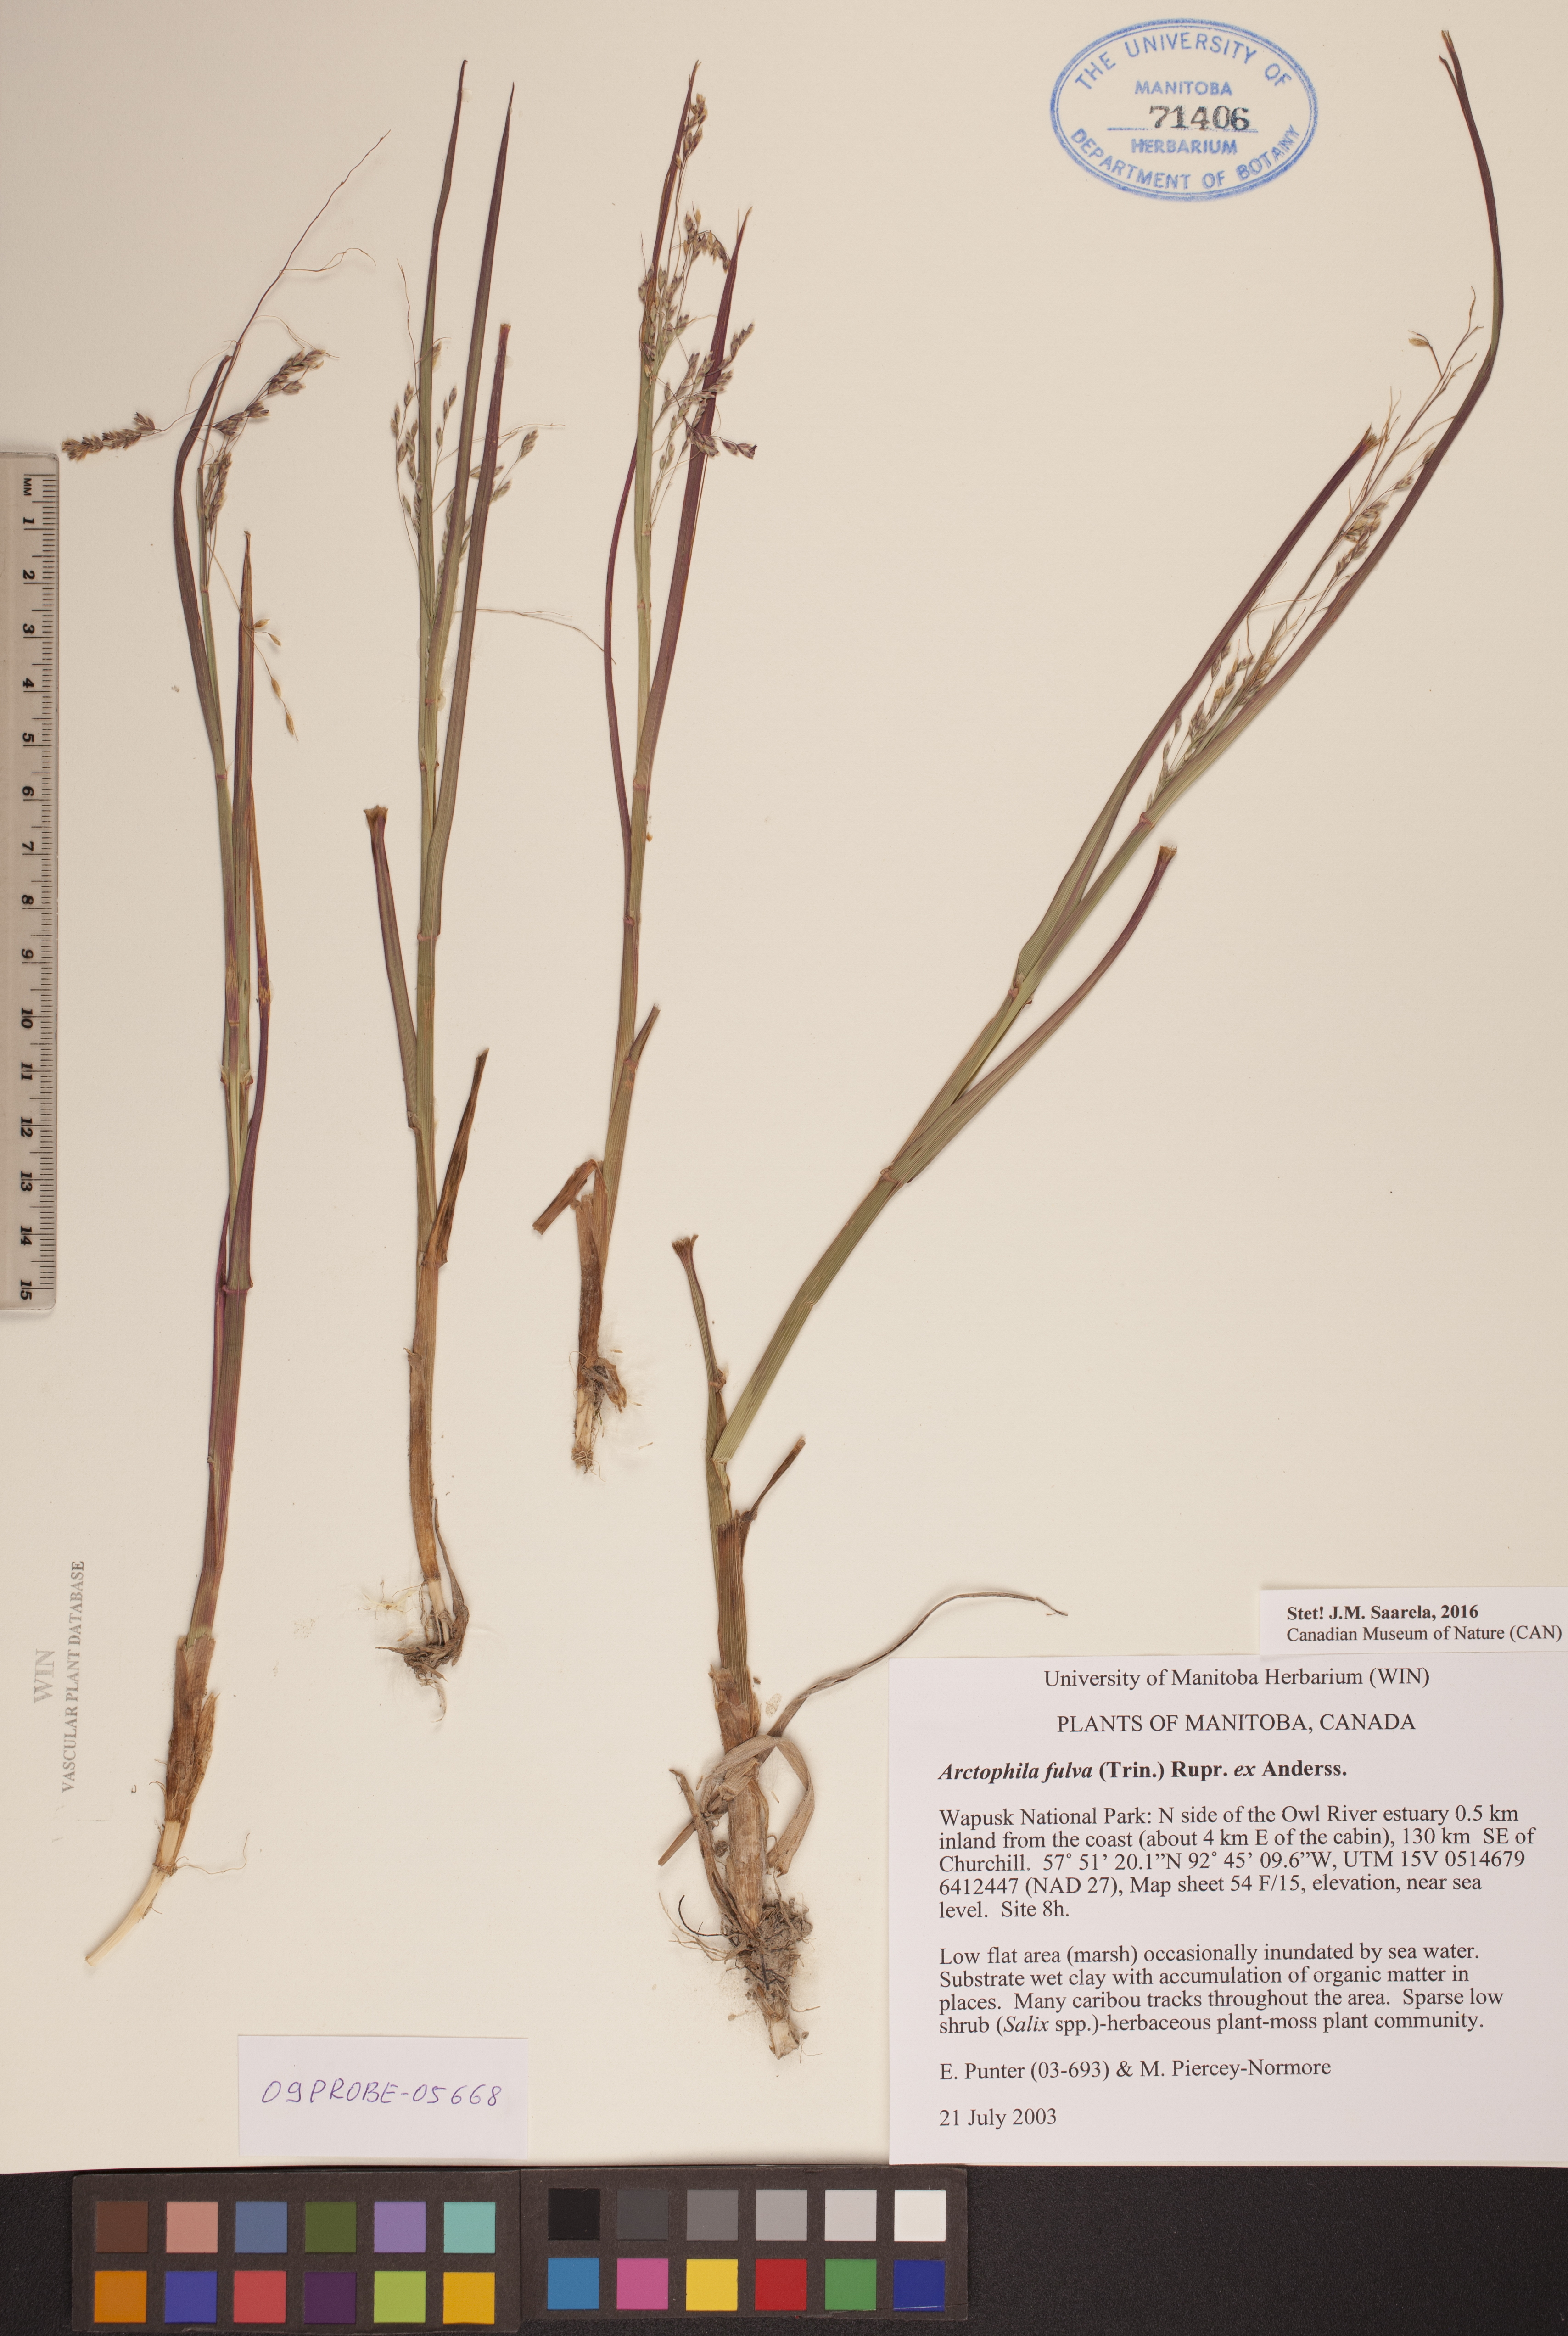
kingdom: Plantae
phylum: Tracheophyta
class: Liliopsida
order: Poales
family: Poaceae
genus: Dupontia
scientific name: Dupontia fulva
